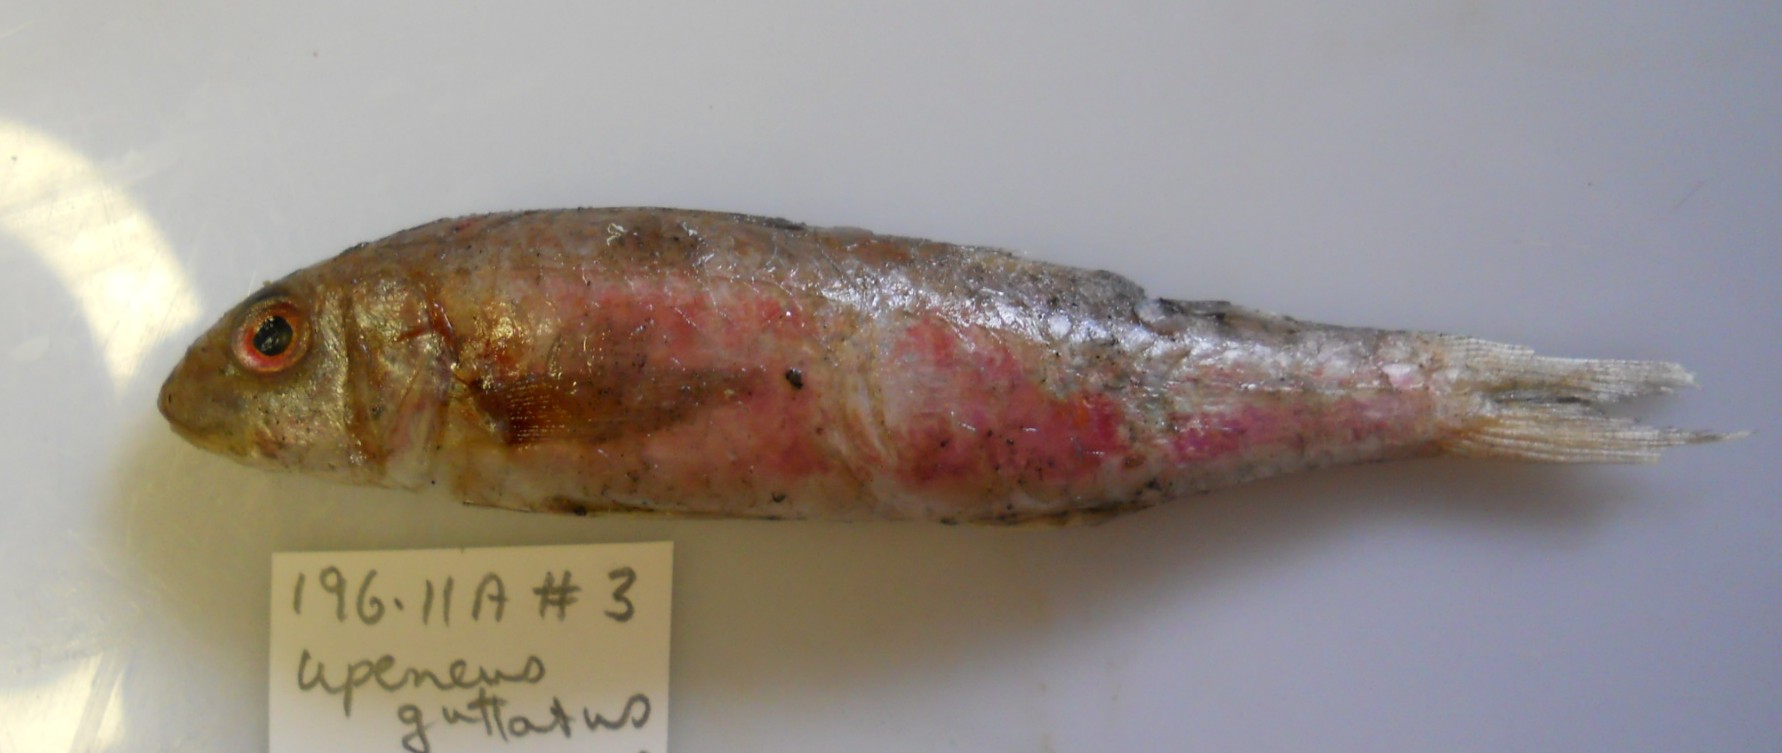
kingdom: Animalia
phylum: Chordata
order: Perciformes
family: Mullidae
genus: Upeneus
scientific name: Upeneus floros
